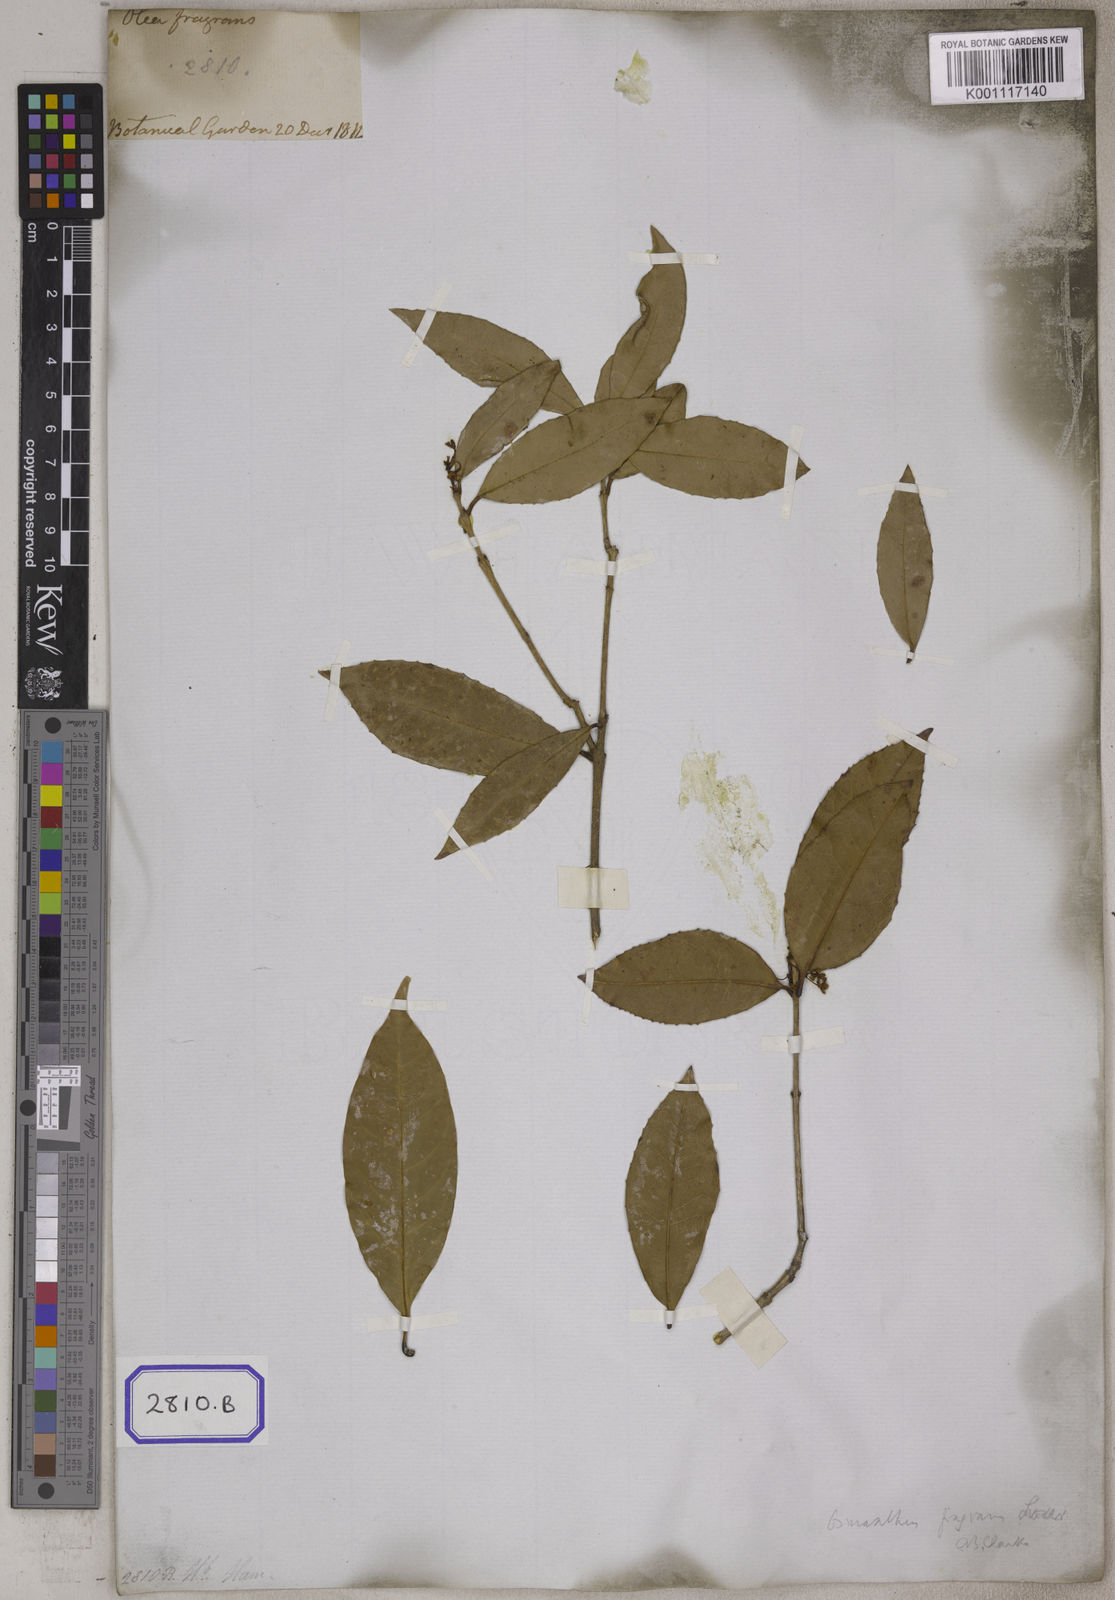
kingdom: Plantae
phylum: Tracheophyta
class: Magnoliopsida
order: Lamiales
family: Oleaceae
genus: Osmanthus
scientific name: Osmanthus fragrans
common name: Sweet osmanthus
